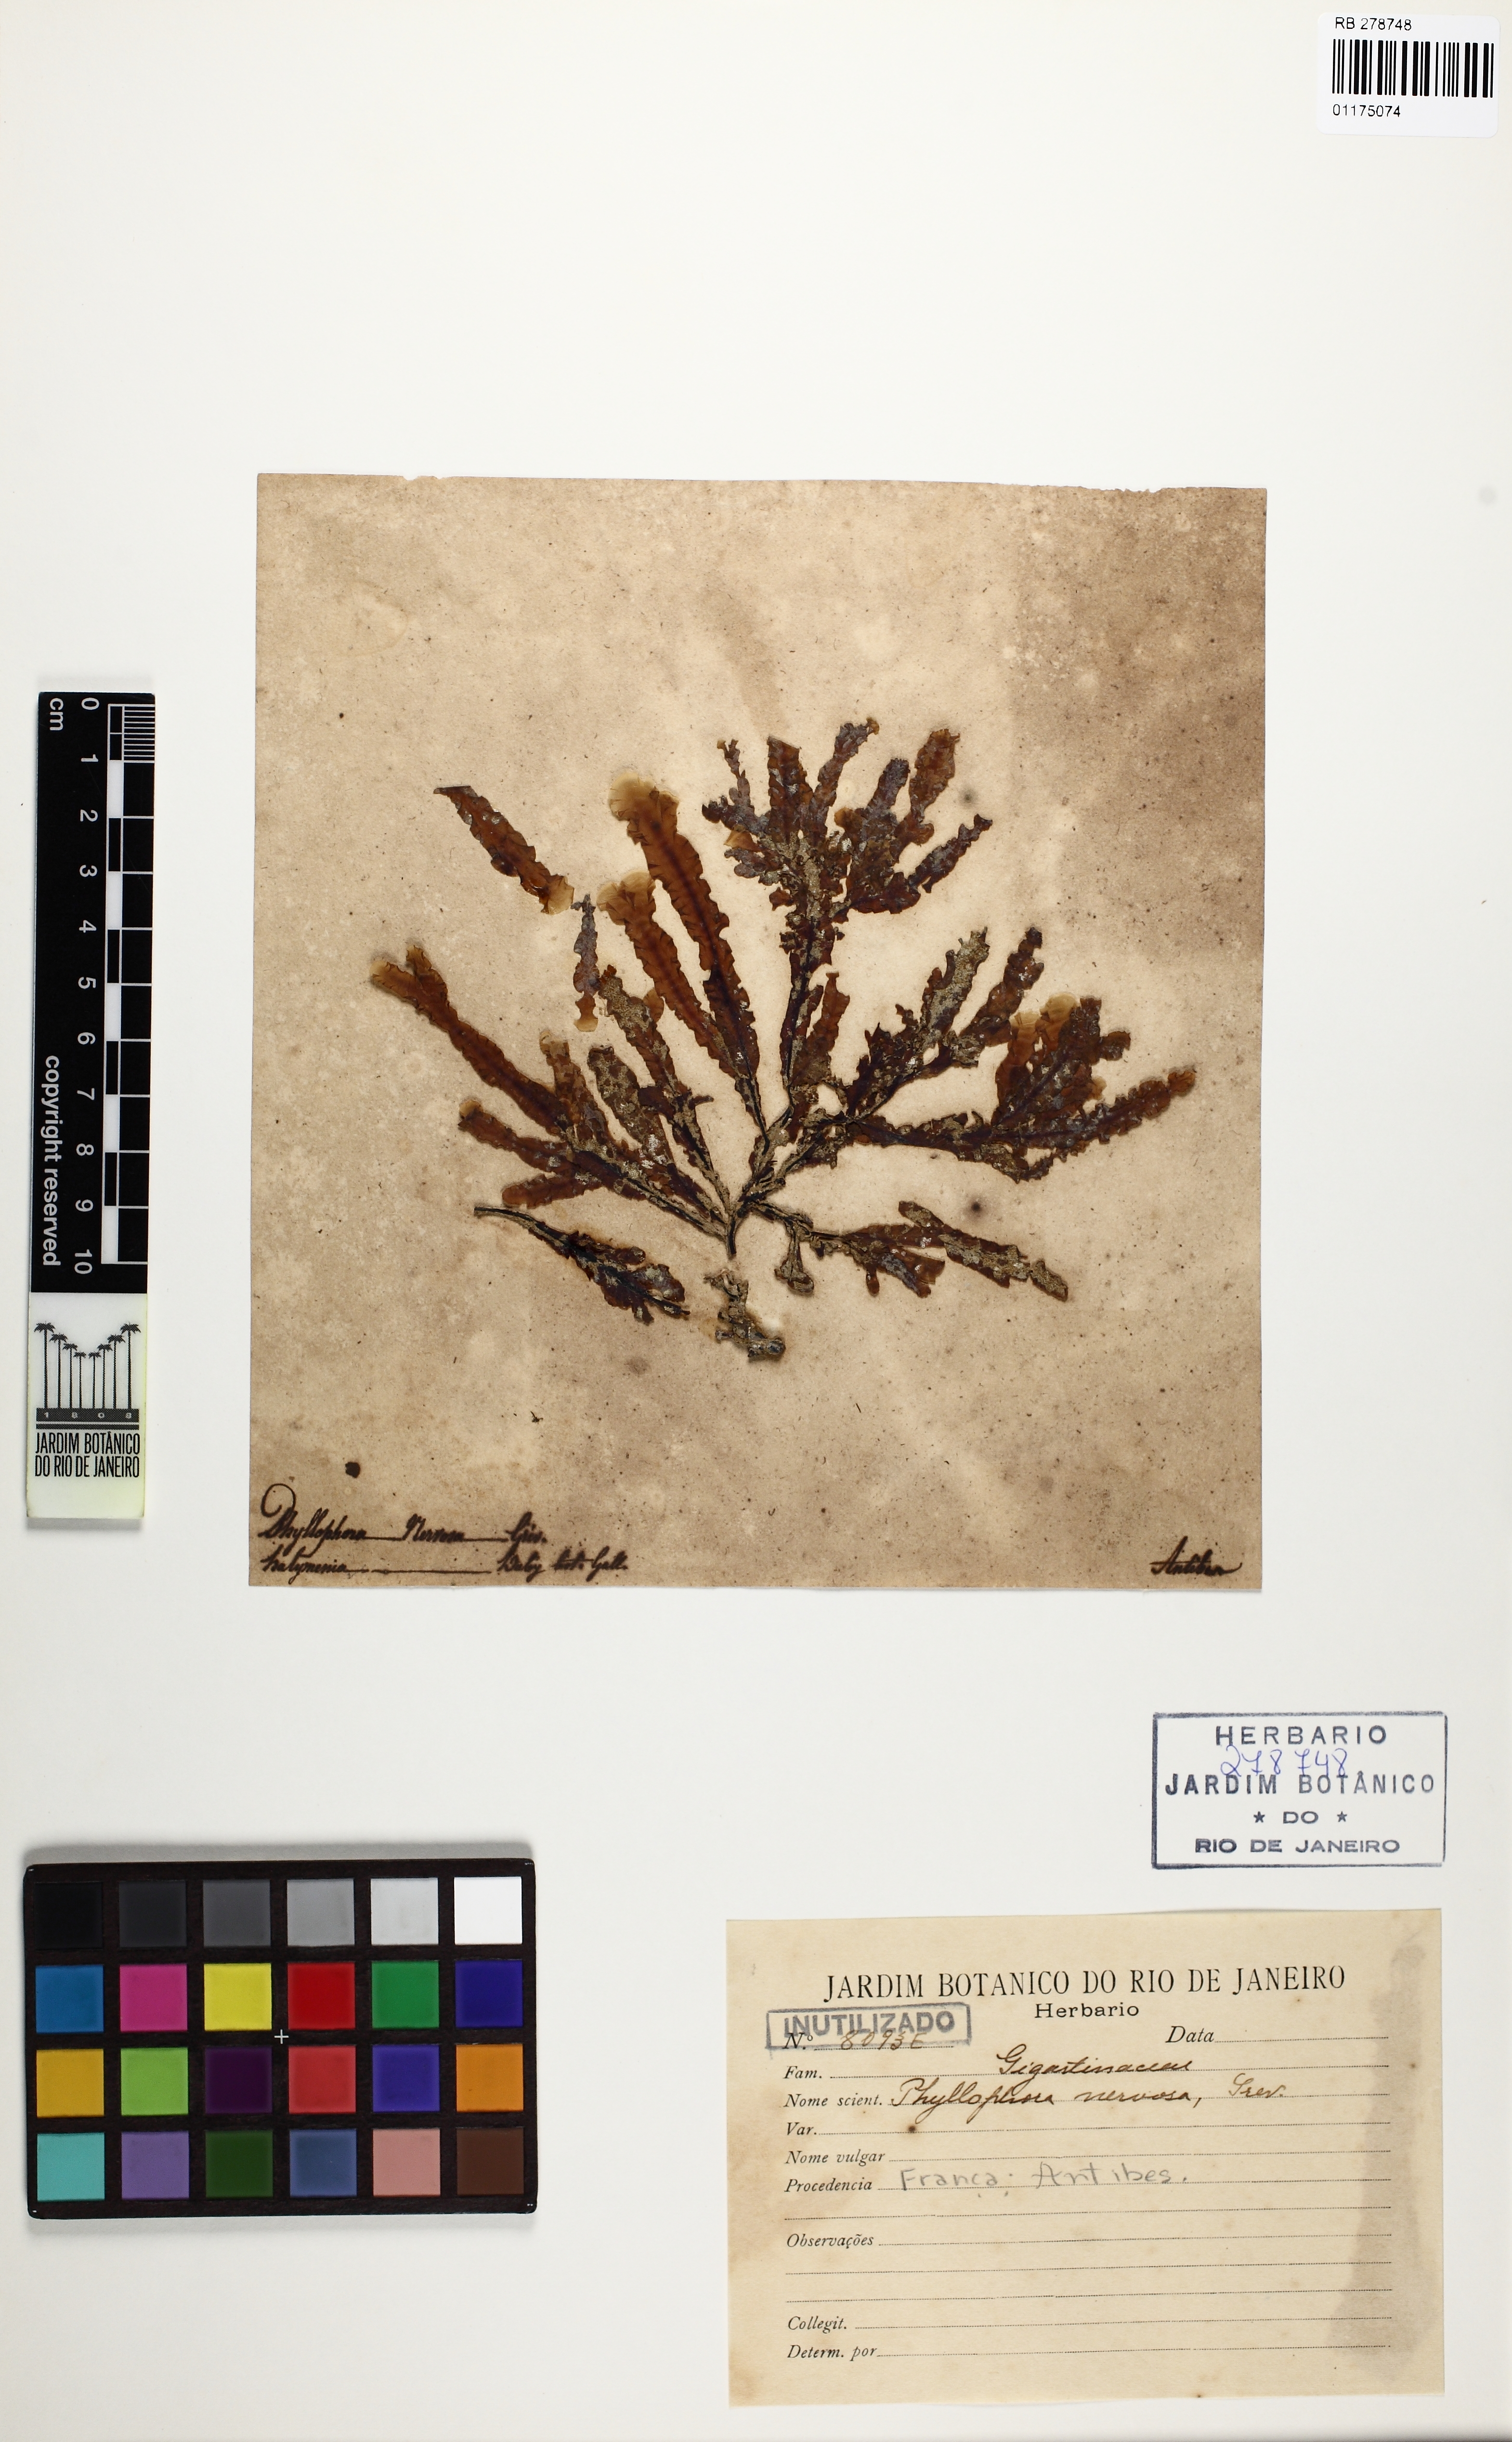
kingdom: Plantae
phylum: Rhodophyta
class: Florideophyceae
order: Gigartinales
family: Phyllophoraceae
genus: Phyllophora
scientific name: Phyllophora crispa
